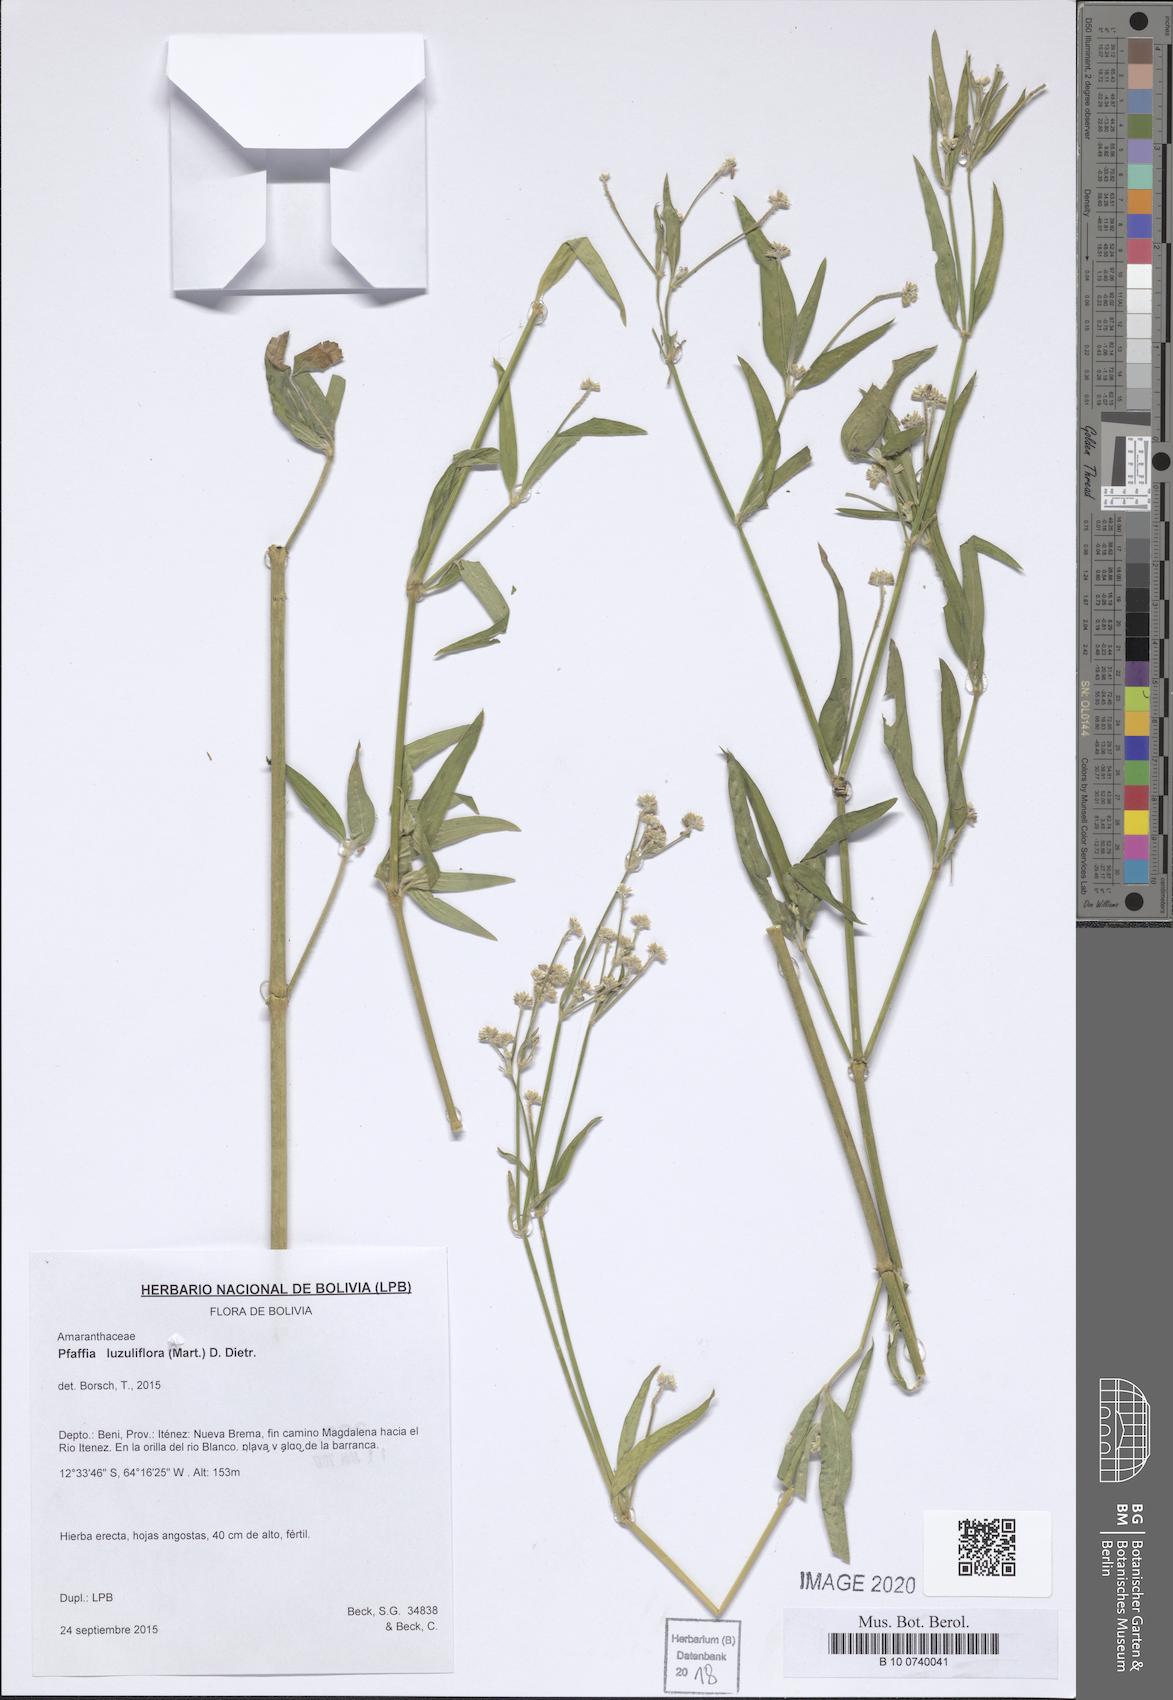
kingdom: Plantae
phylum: Tracheophyta
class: Magnoliopsida
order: Caryophyllales
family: Amaranthaceae
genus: Pfaffia
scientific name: Pfaffia glomerata
